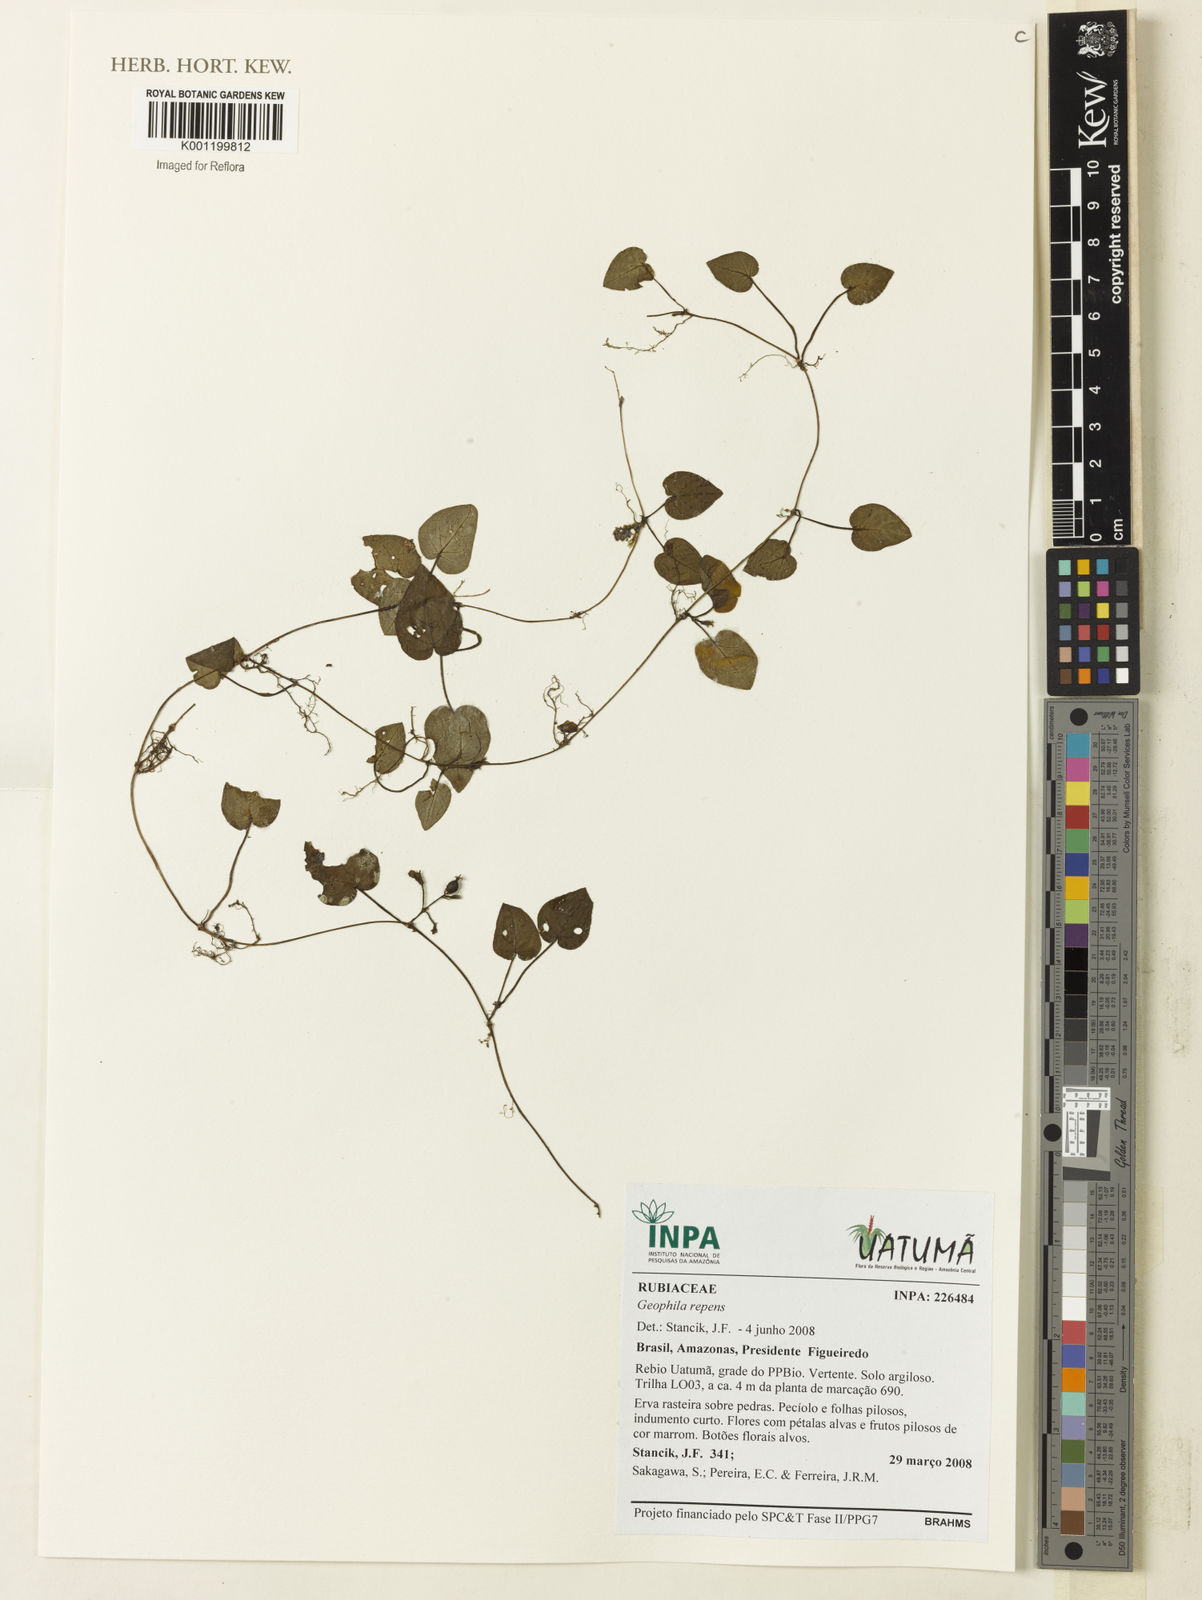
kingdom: Plantae
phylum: Tracheophyta
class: Magnoliopsida
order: Gentianales
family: Rubiaceae
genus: Geophila
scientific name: Geophila repens
